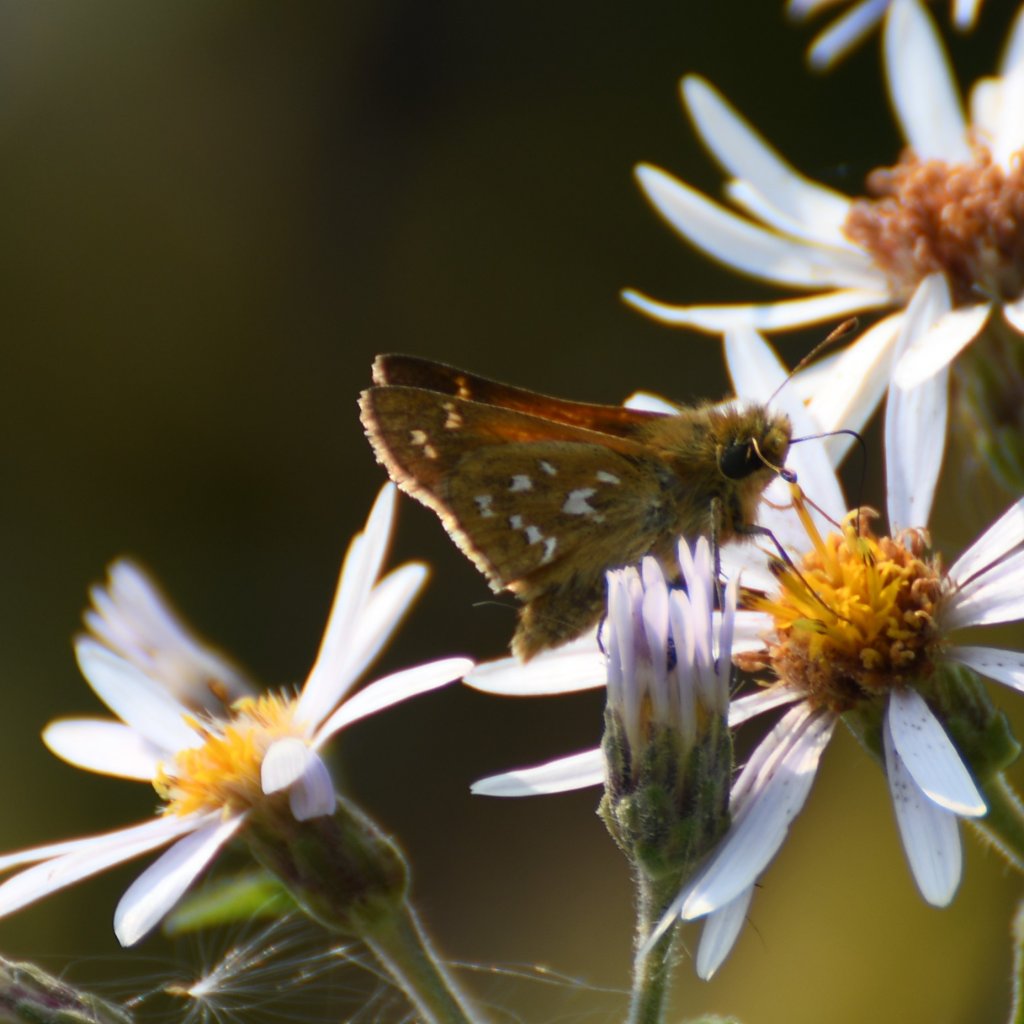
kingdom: Animalia
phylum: Arthropoda
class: Insecta
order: Lepidoptera
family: Hesperiidae
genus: Hesperia
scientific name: Hesperia comma
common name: Common Branded Skipper
